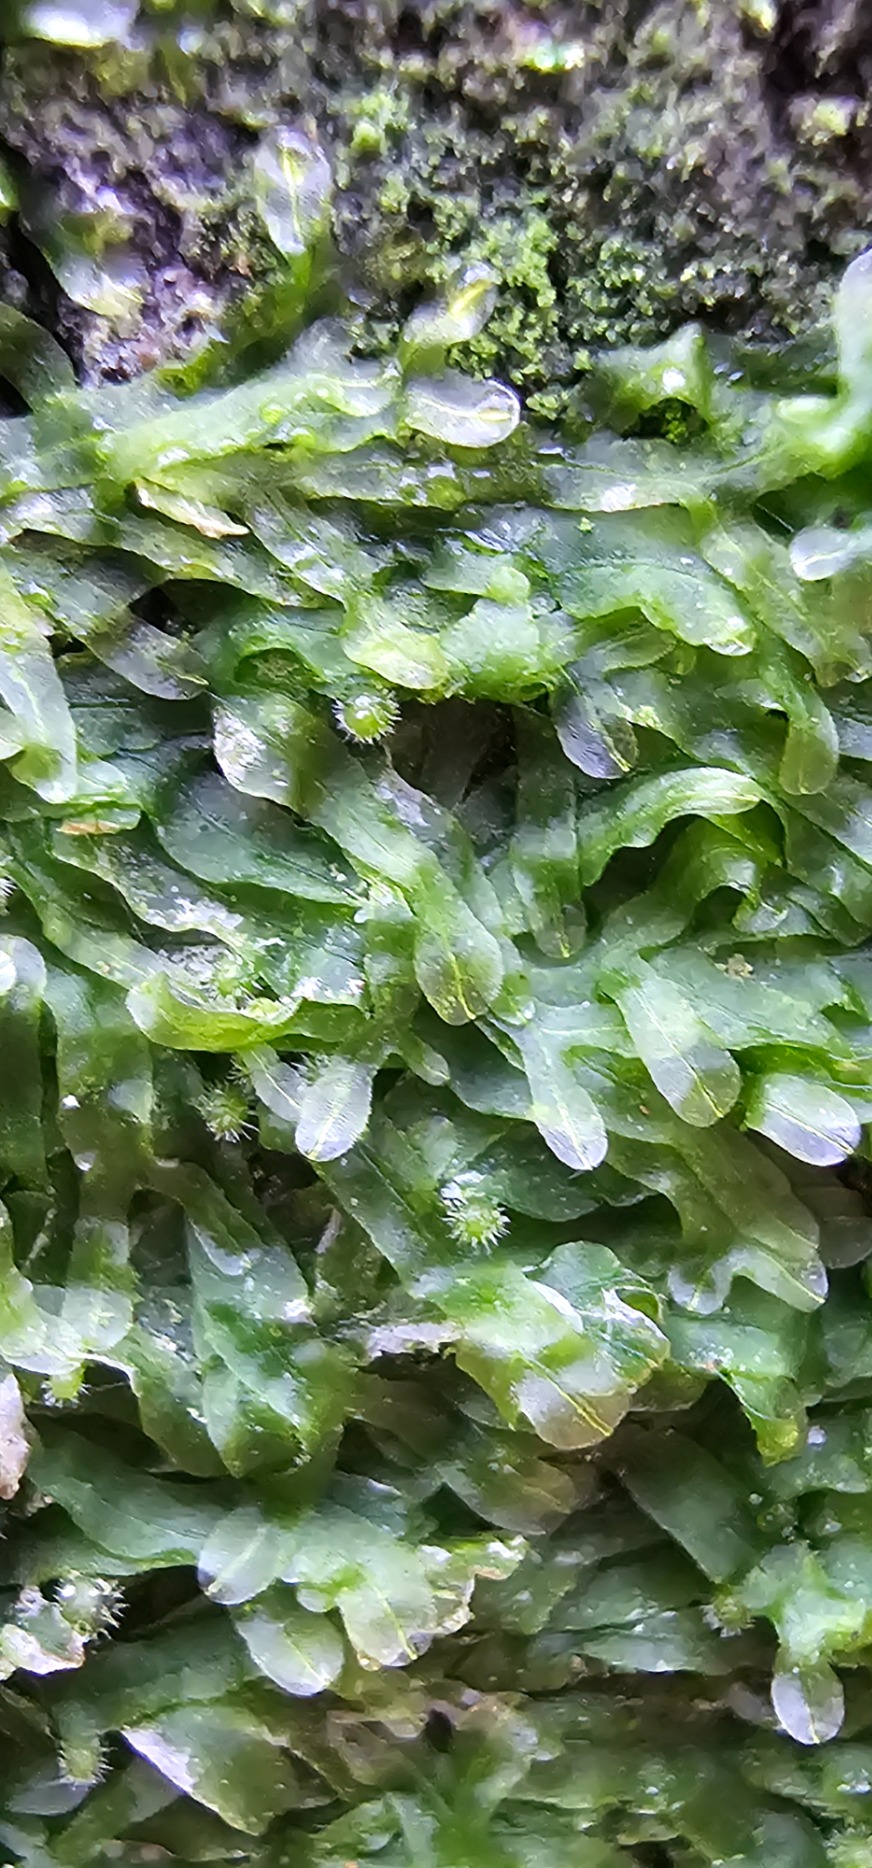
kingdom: Plantae
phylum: Marchantiophyta
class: Jungermanniopsida
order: Metzgeriales
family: Metzgeriaceae
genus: Metzgeria
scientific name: Metzgeria furcata
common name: Almindelig gaffelløv
